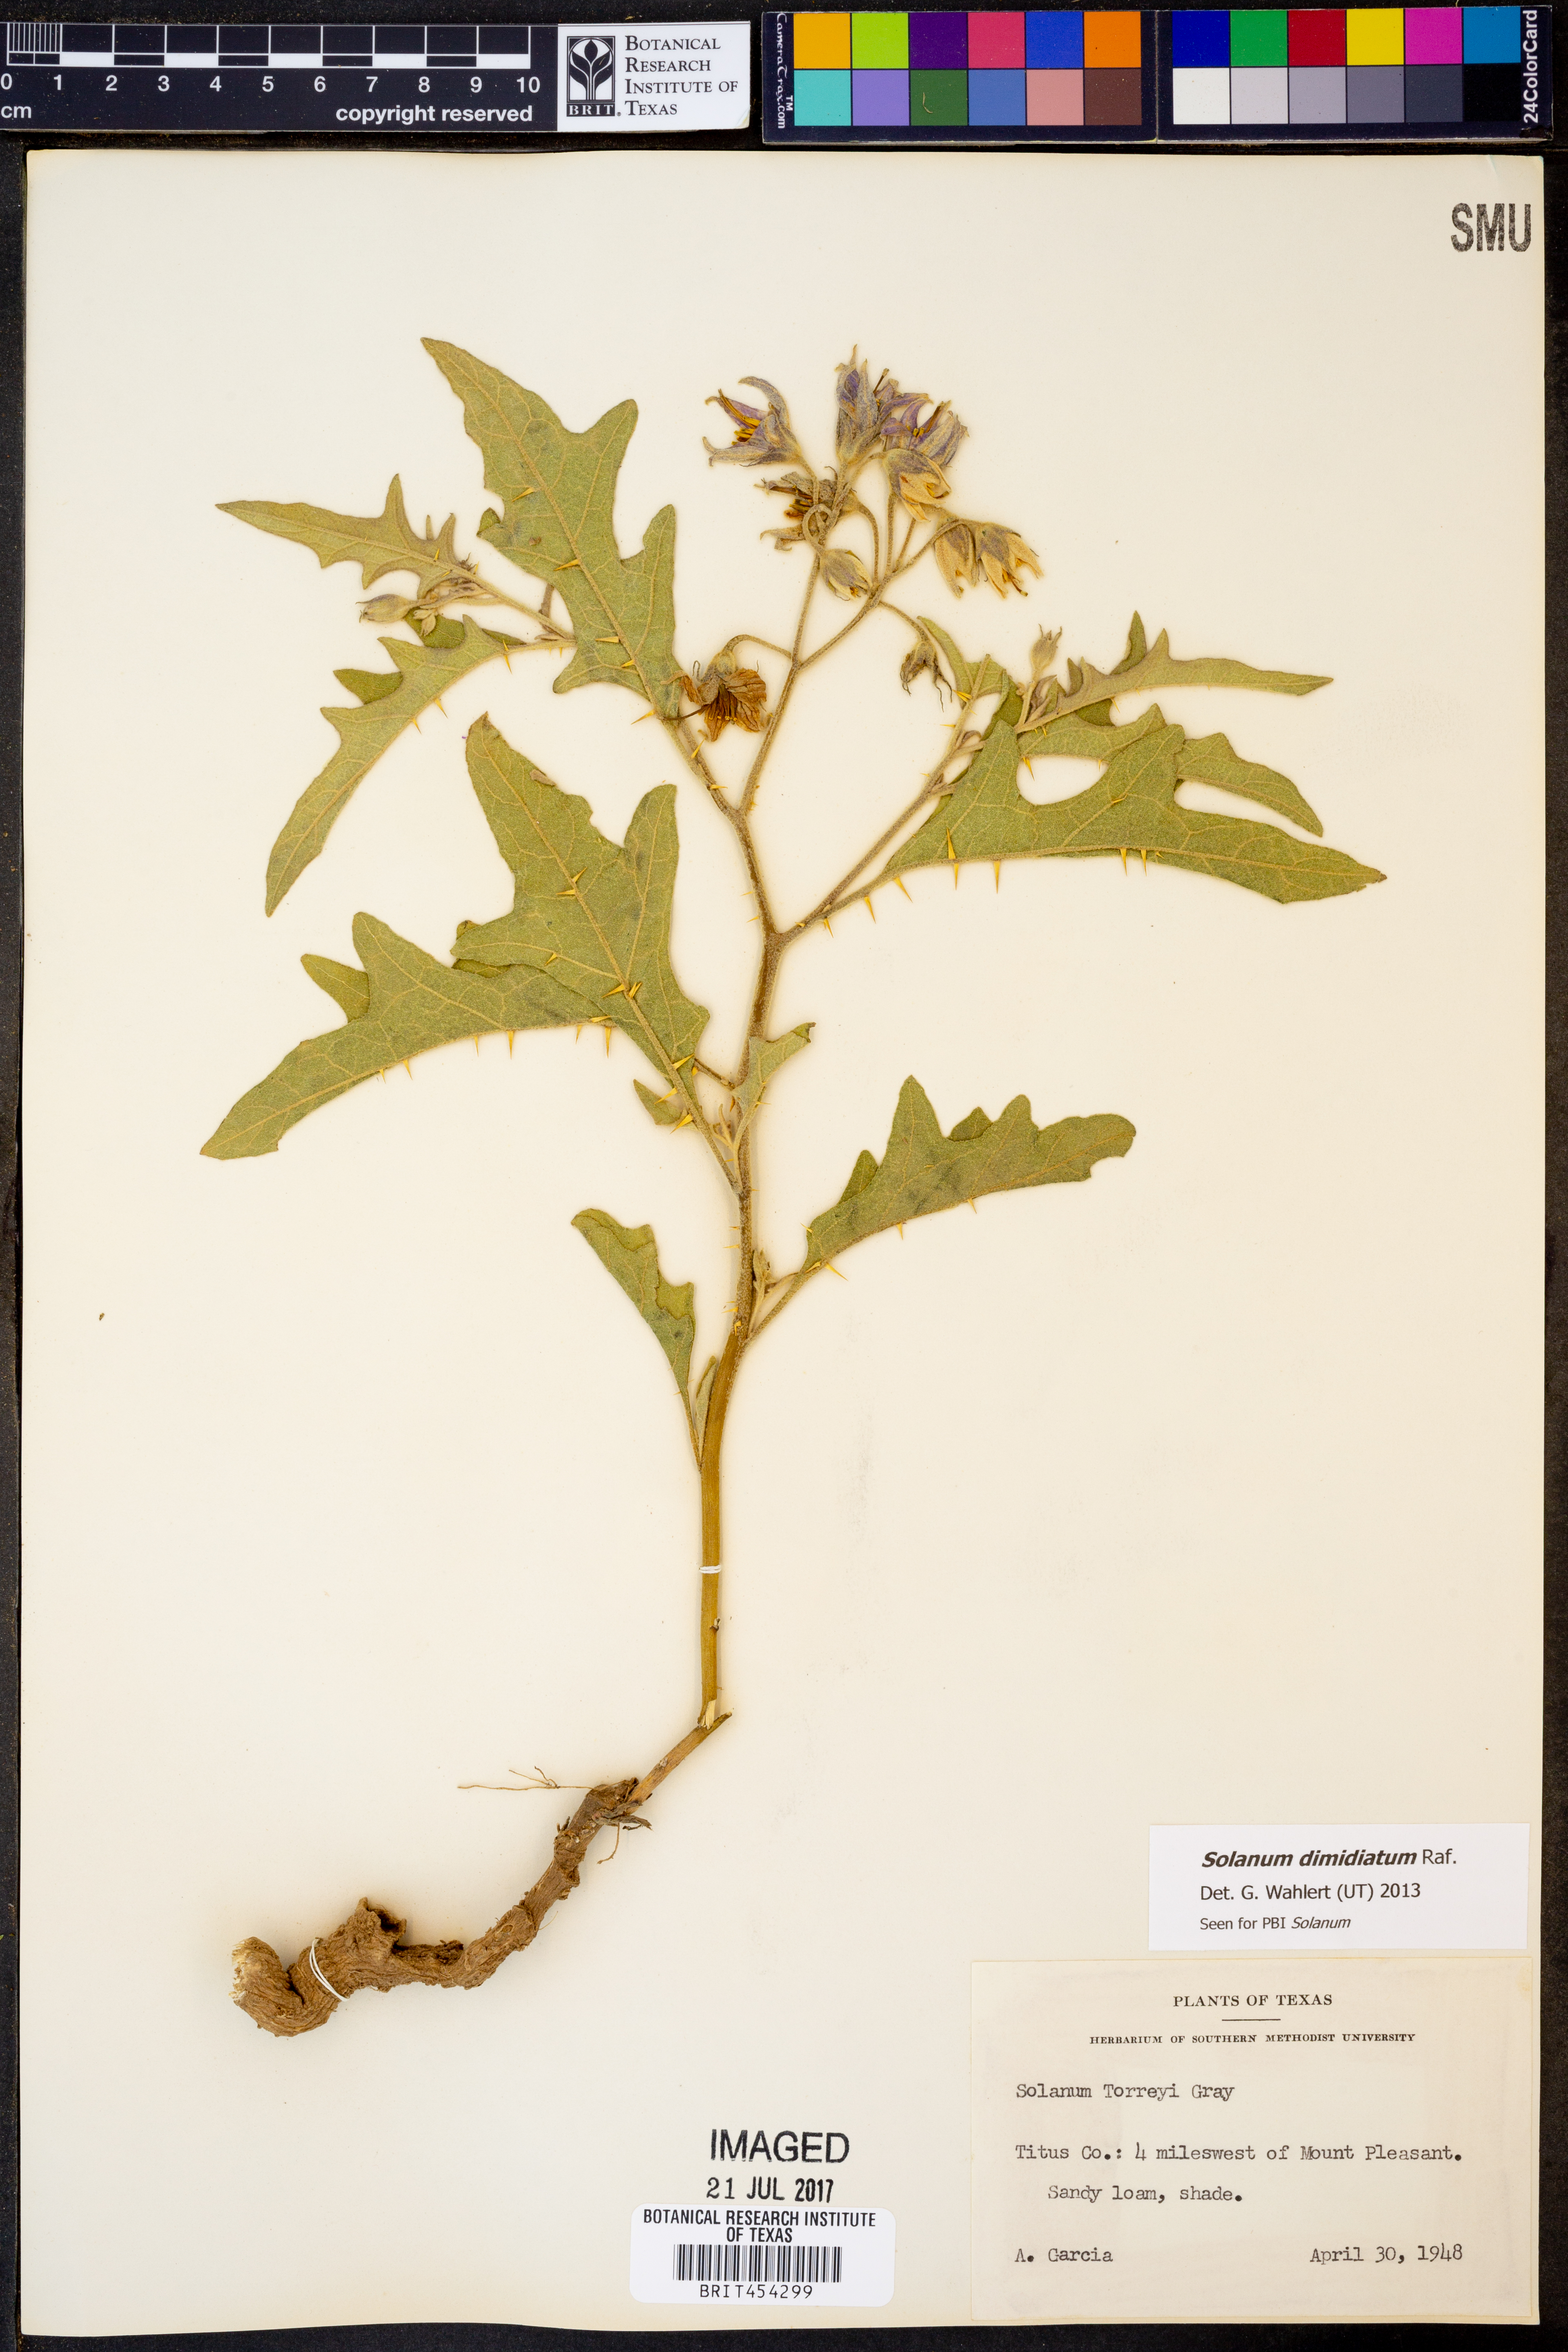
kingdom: Plantae
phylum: Tracheophyta
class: Magnoliopsida
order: Solanales
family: Solanaceae
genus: Solanum
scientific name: Solanum dimidiatum
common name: Carolina horse-nettle
